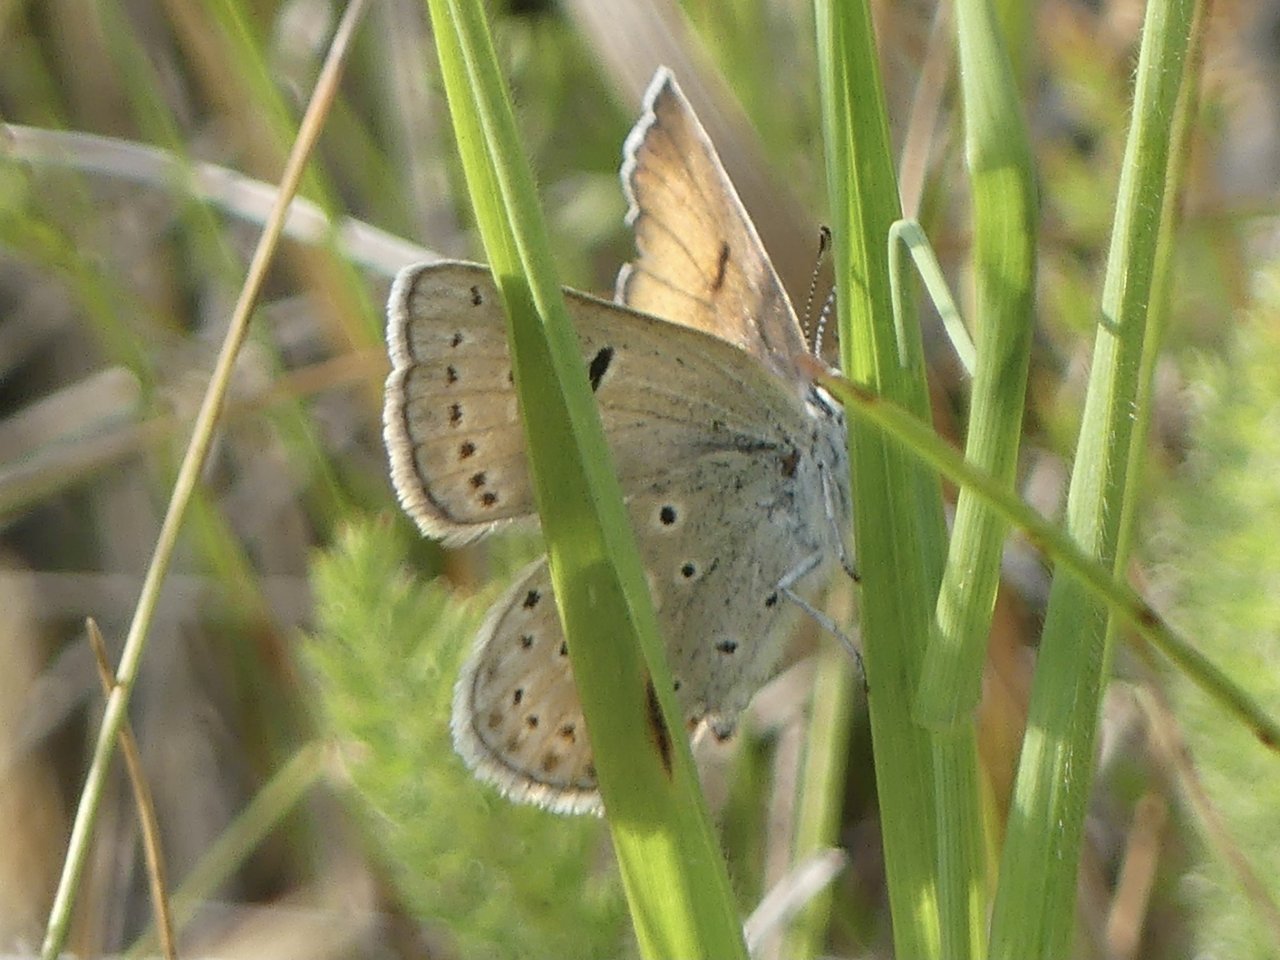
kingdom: Animalia
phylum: Arthropoda
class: Insecta
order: Lepidoptera
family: Lycaenidae
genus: Nacaduba
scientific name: Nacaduba dyopa
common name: Gray Copper
